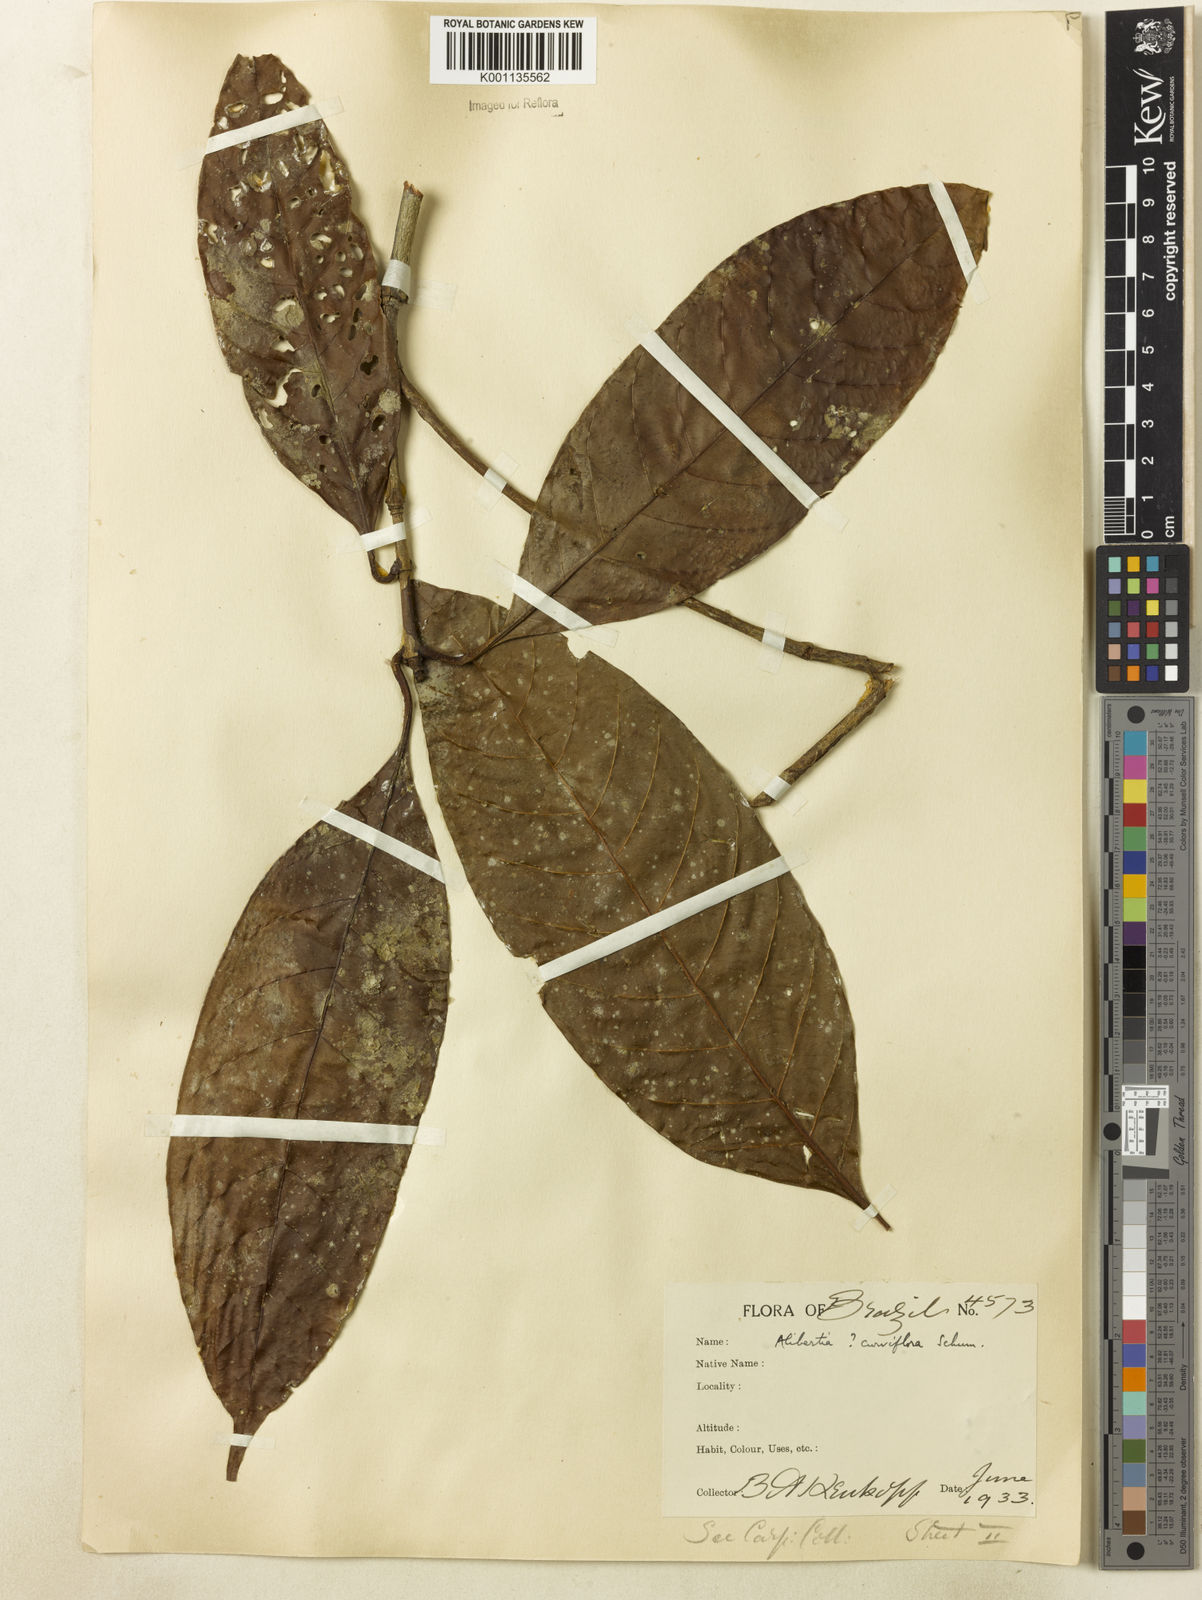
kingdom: Plantae
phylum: Tracheophyta
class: Magnoliopsida
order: Gentianales
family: Rubiaceae
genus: Agouticarpa
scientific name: Agouticarpa curviflora
